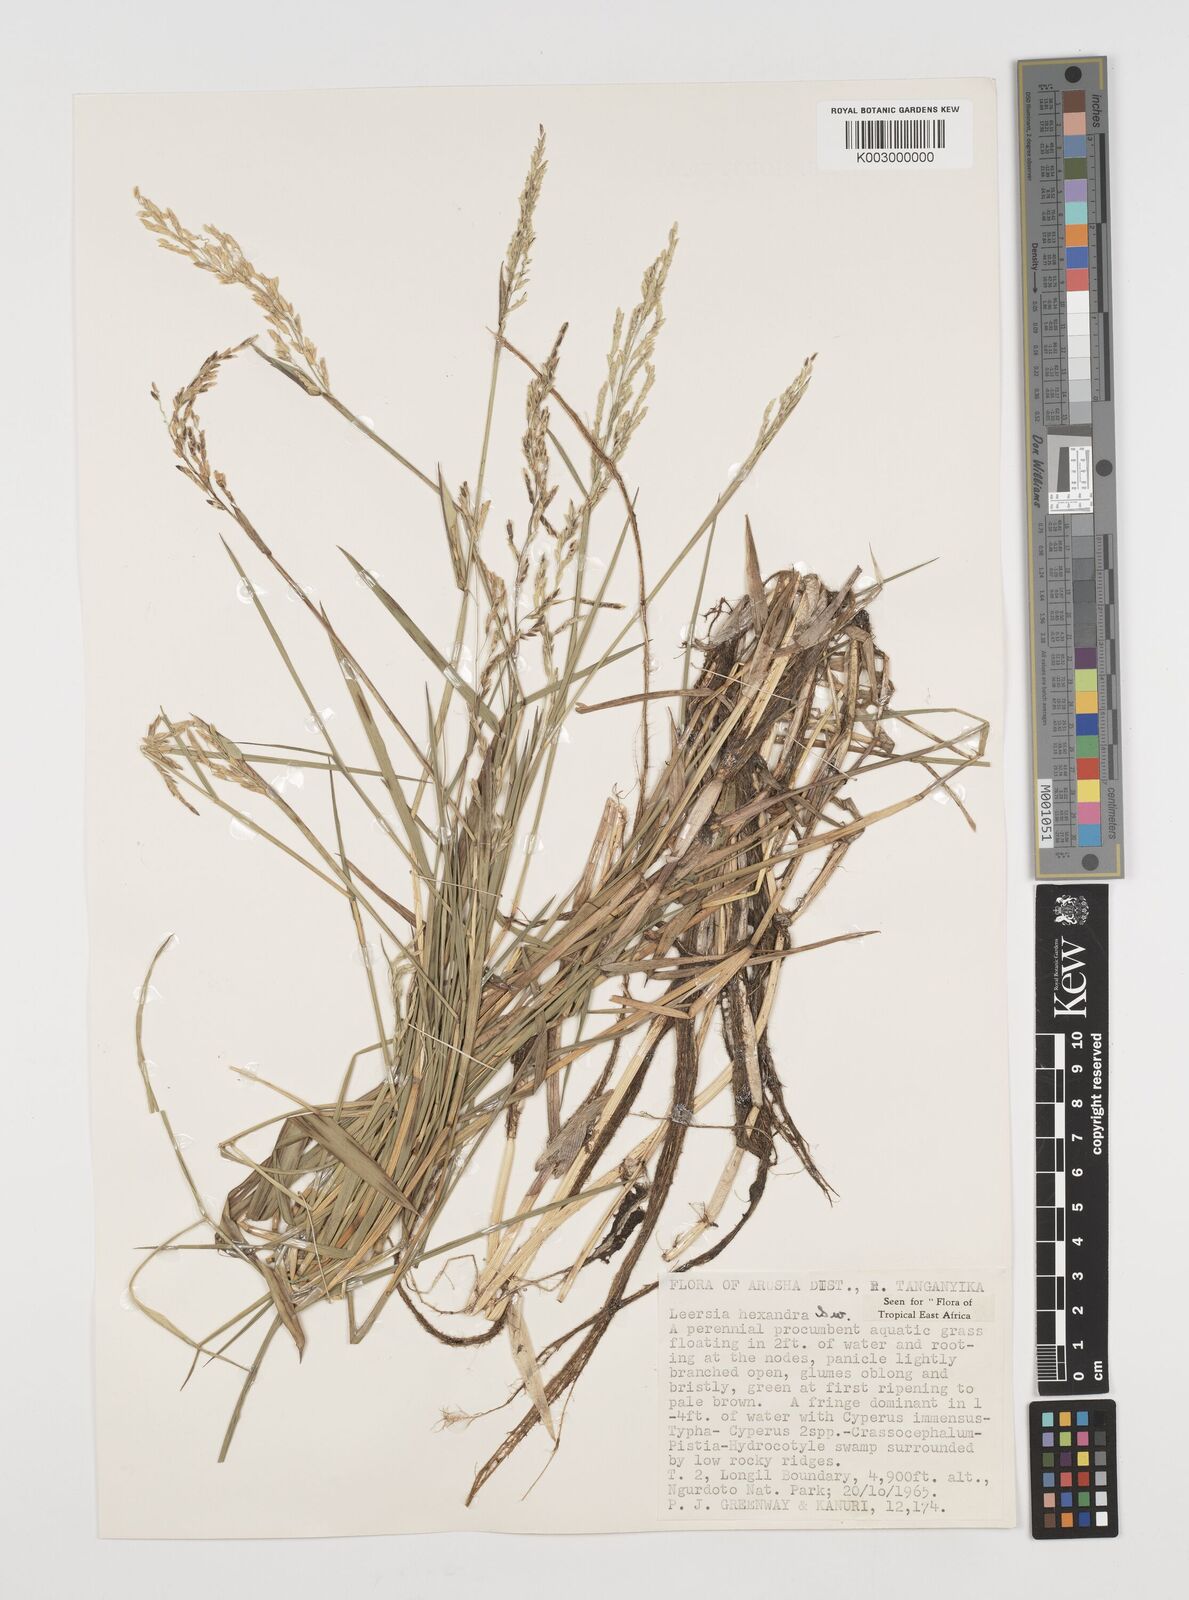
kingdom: Plantae
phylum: Tracheophyta
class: Liliopsida
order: Poales
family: Poaceae
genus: Leersia
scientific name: Leersia hexandra
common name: Southern cut grass
